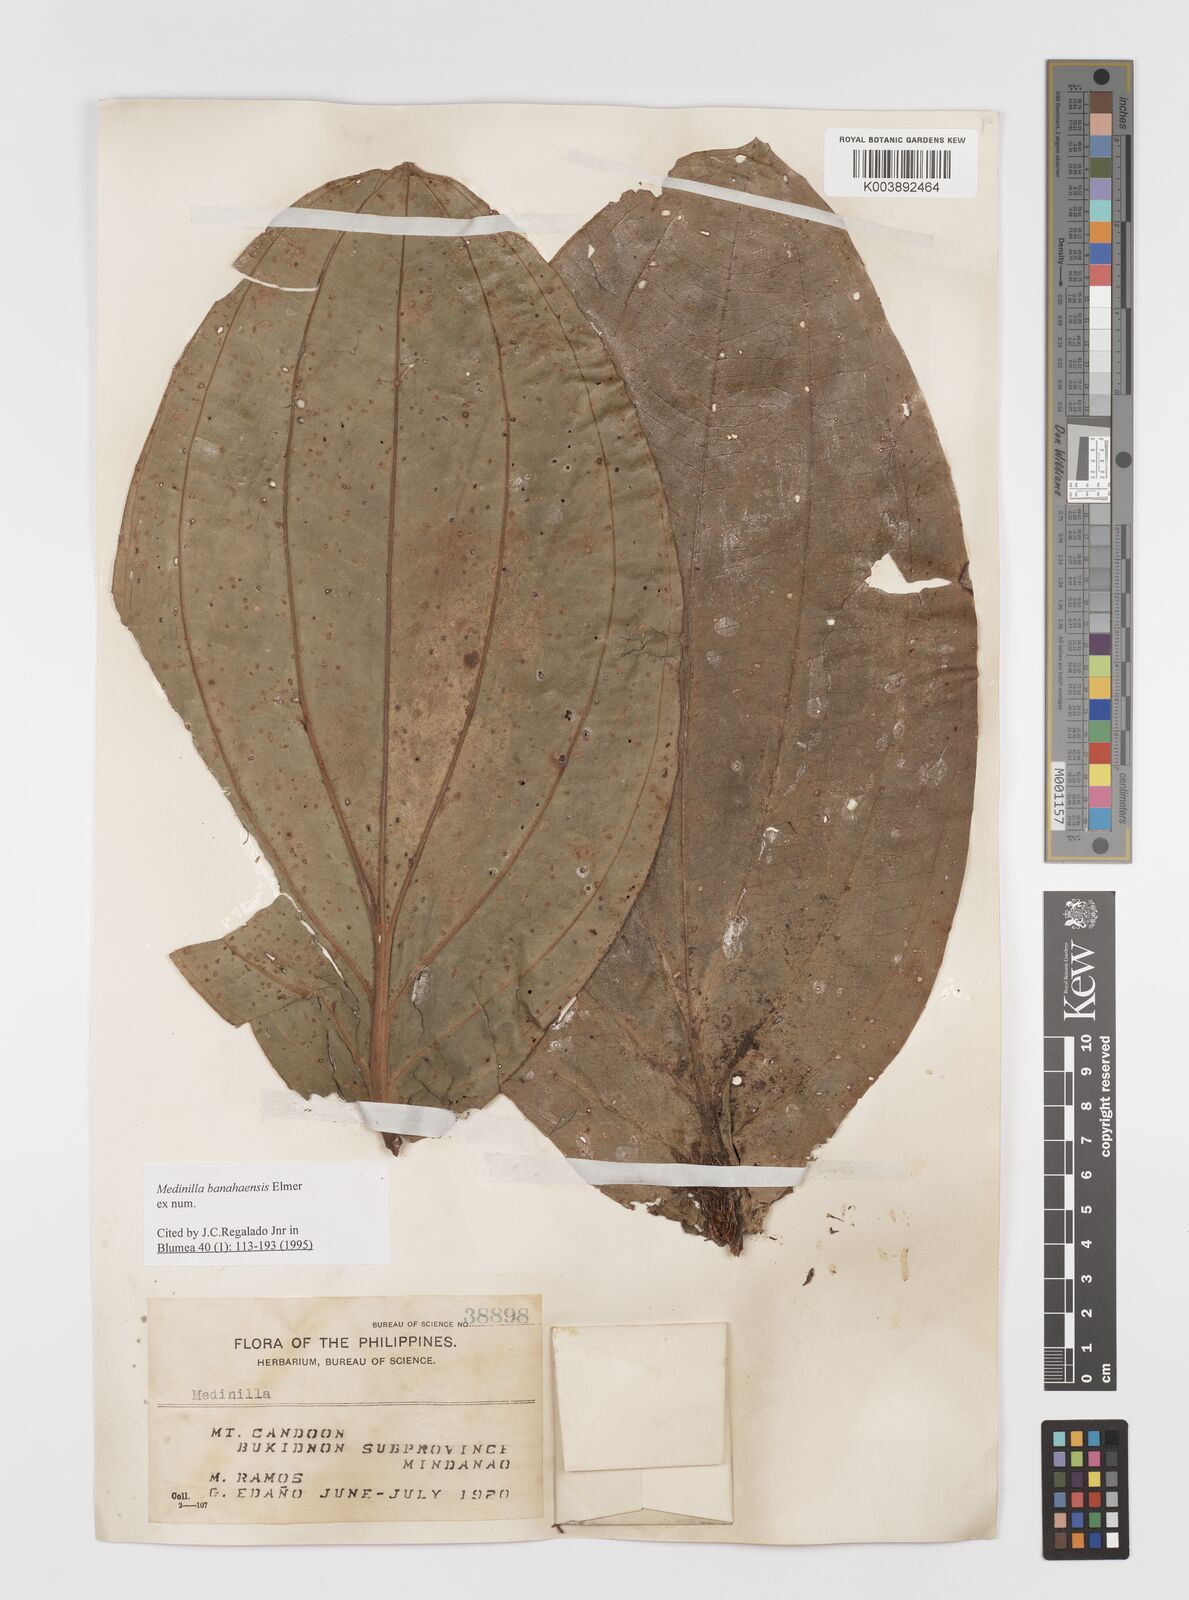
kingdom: Plantae
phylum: Tracheophyta
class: Magnoliopsida
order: Myrtales
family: Melastomataceae
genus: Medinilla
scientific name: Medinilla banahaensis
